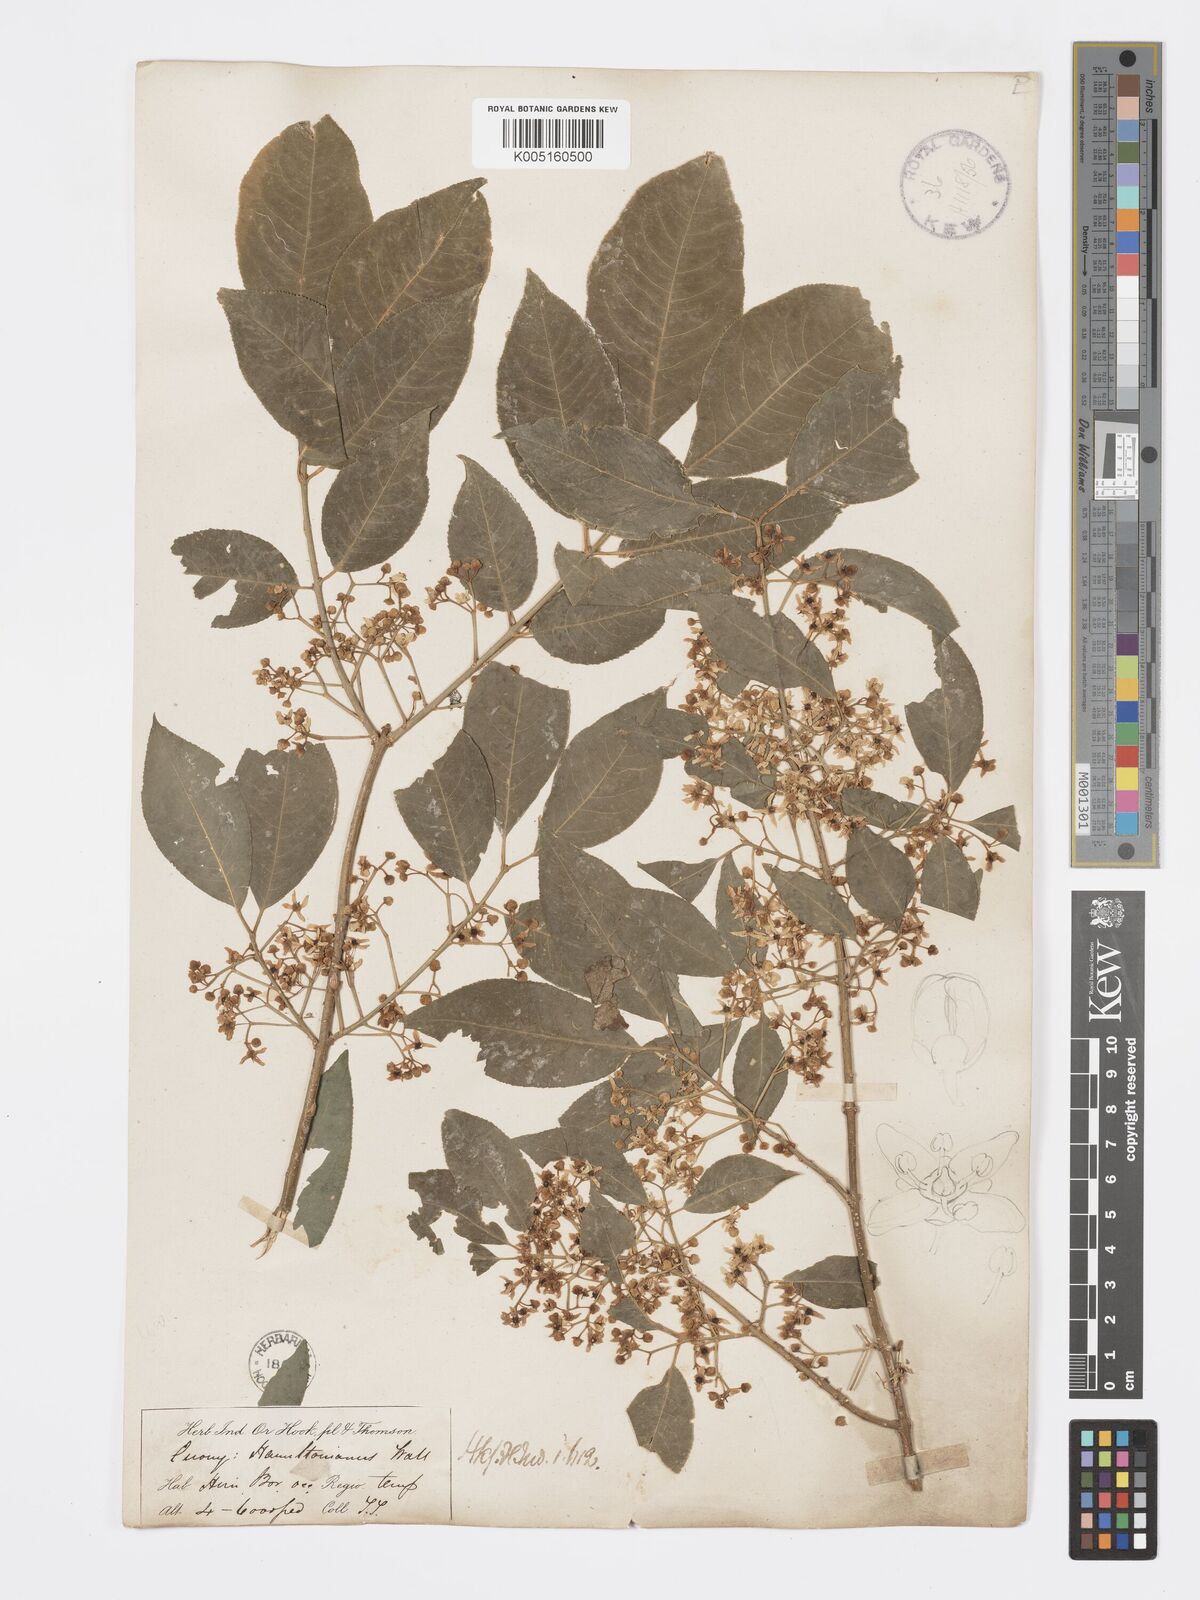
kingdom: Plantae
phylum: Tracheophyta
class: Magnoliopsida
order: Celastrales
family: Celastraceae
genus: Euonymus
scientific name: Euonymus
